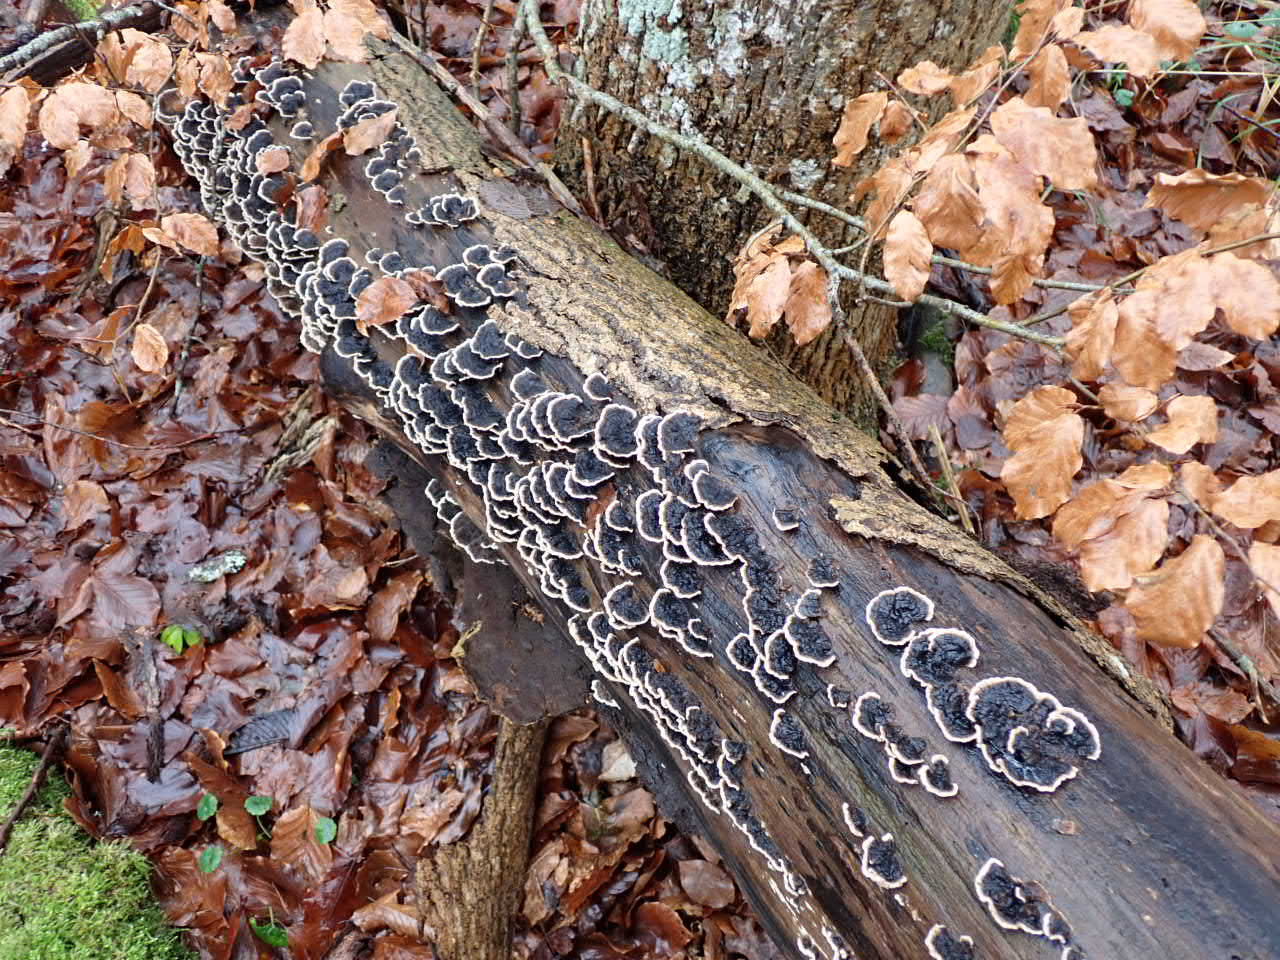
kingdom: Fungi
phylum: Basidiomycota
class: Agaricomycetes
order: Polyporales
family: Polyporaceae
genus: Trametes
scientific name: Trametes versicolor
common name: broget læderporesvamp
